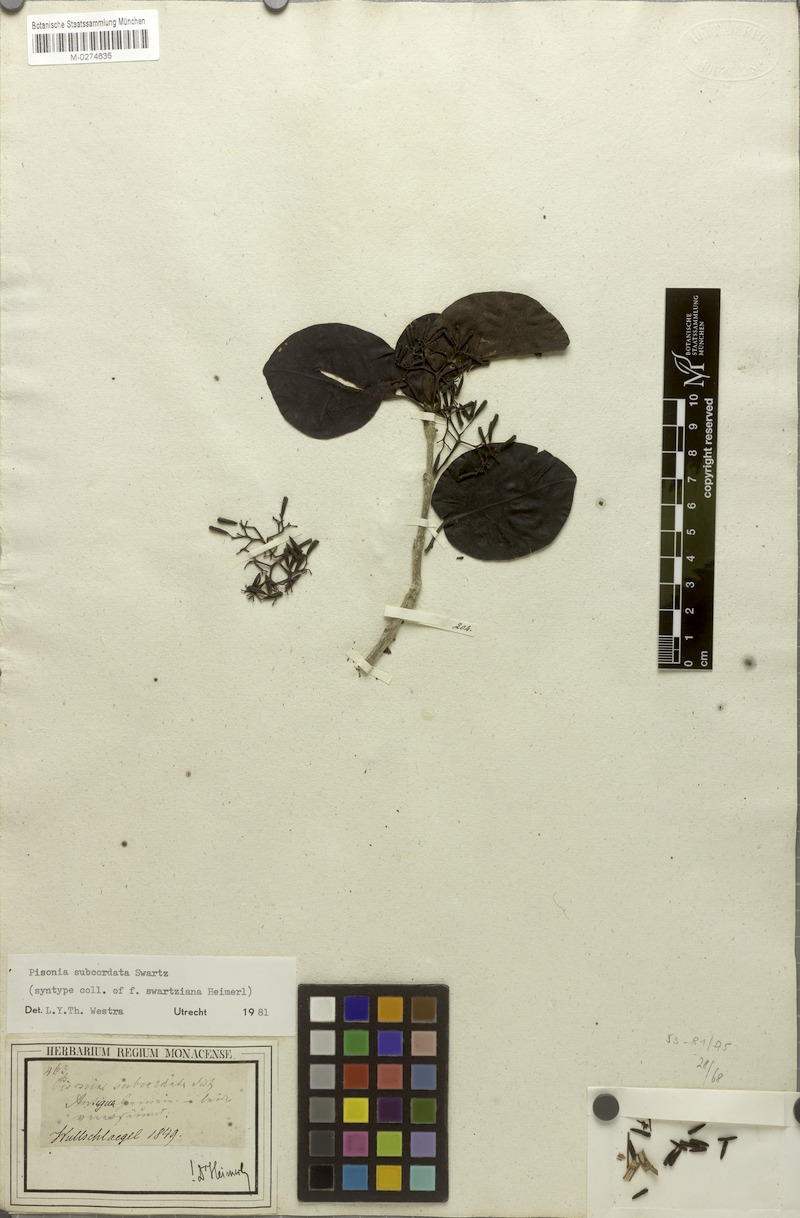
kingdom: Plantae
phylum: Tracheophyta
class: Magnoliopsida
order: Caryophyllales
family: Nyctaginaceae
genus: Pisonia
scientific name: Pisonia subcordata
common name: Mampoo
